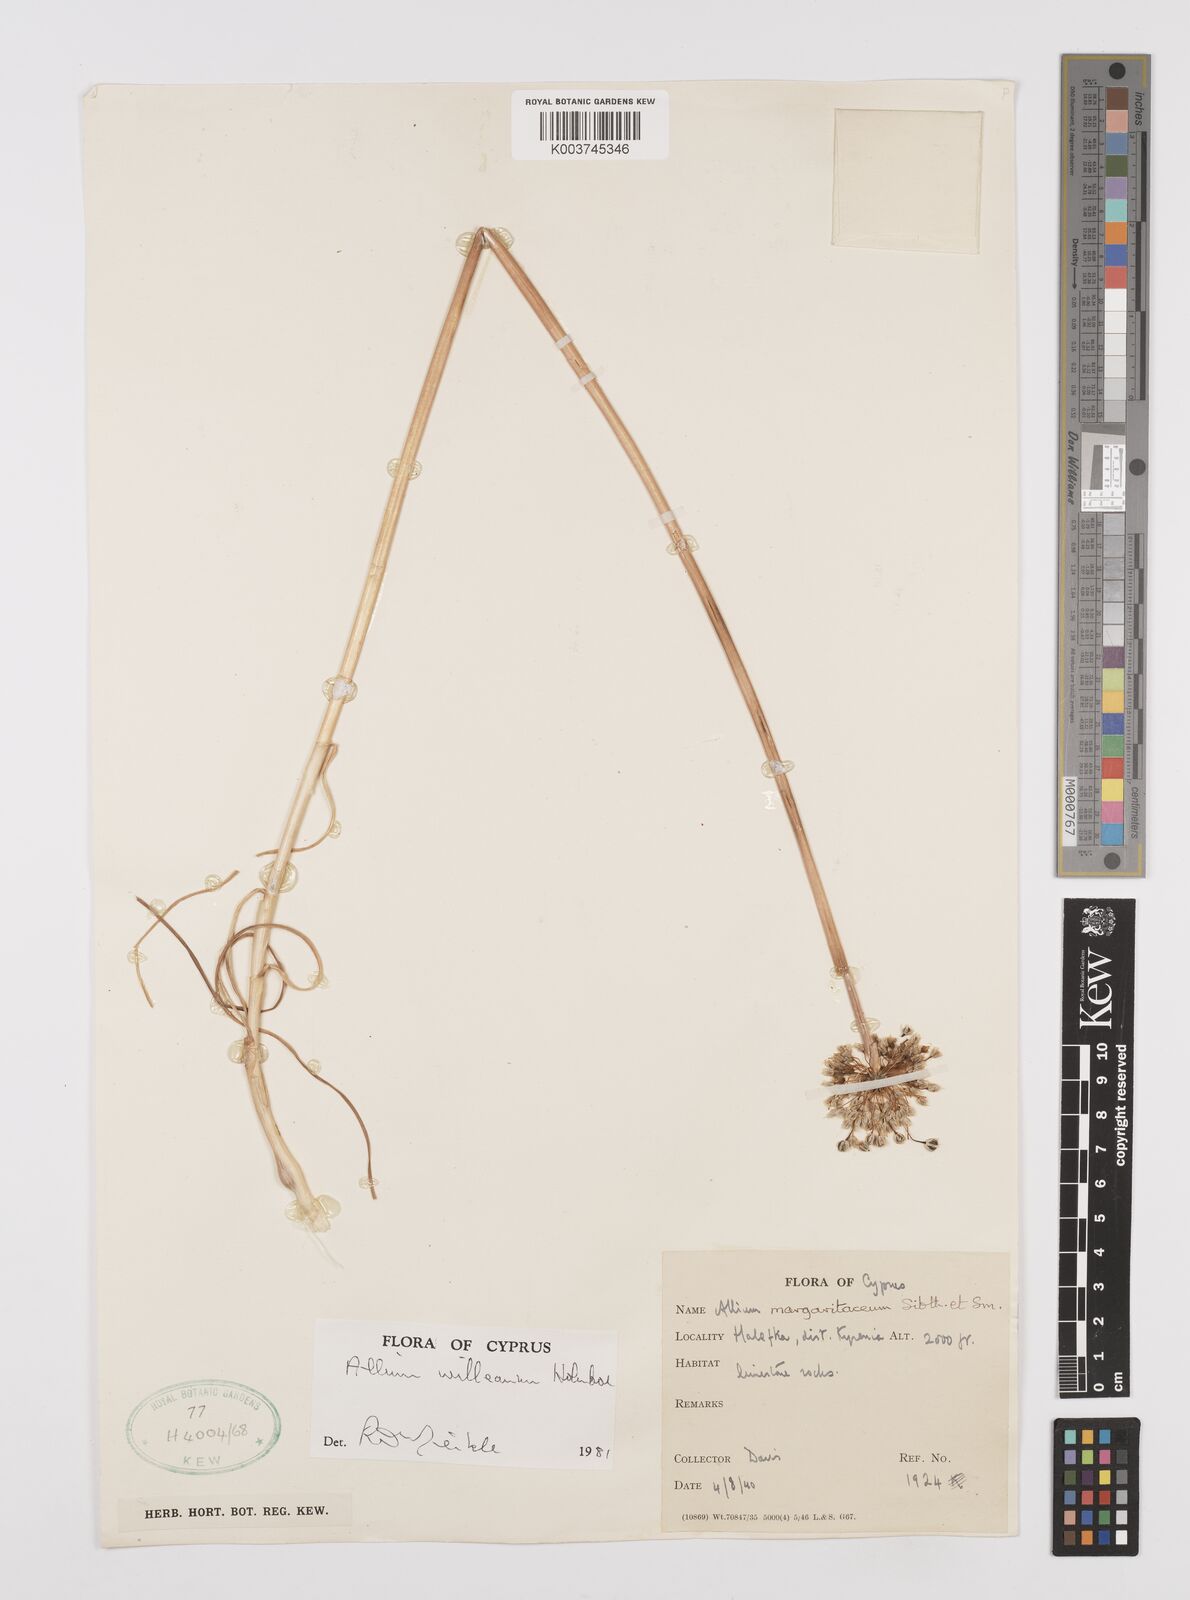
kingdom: Plantae
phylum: Tracheophyta
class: Liliopsida
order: Asparagales
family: Amaryllidaceae
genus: Allium
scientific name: Allium willeanum
